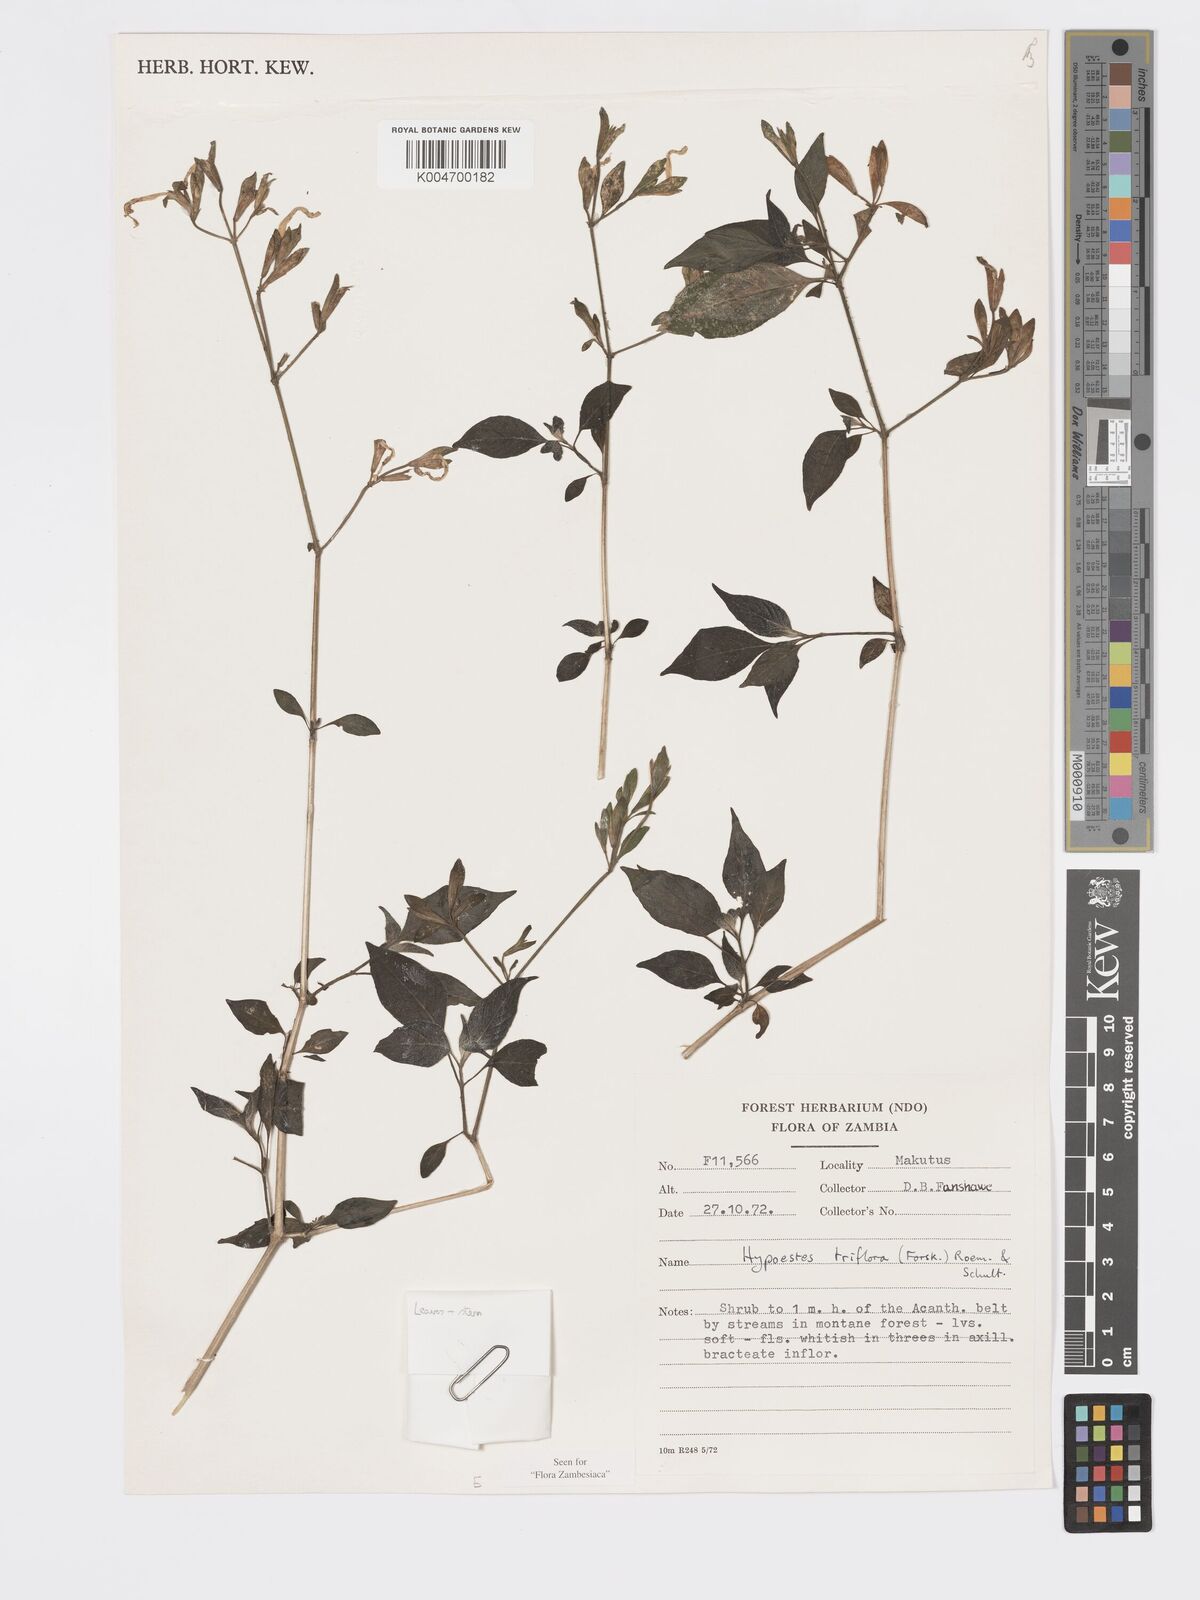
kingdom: Plantae
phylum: Tracheophyta
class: Magnoliopsida
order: Lamiales
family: Acanthaceae
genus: Hypoestes
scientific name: Hypoestes triflora
